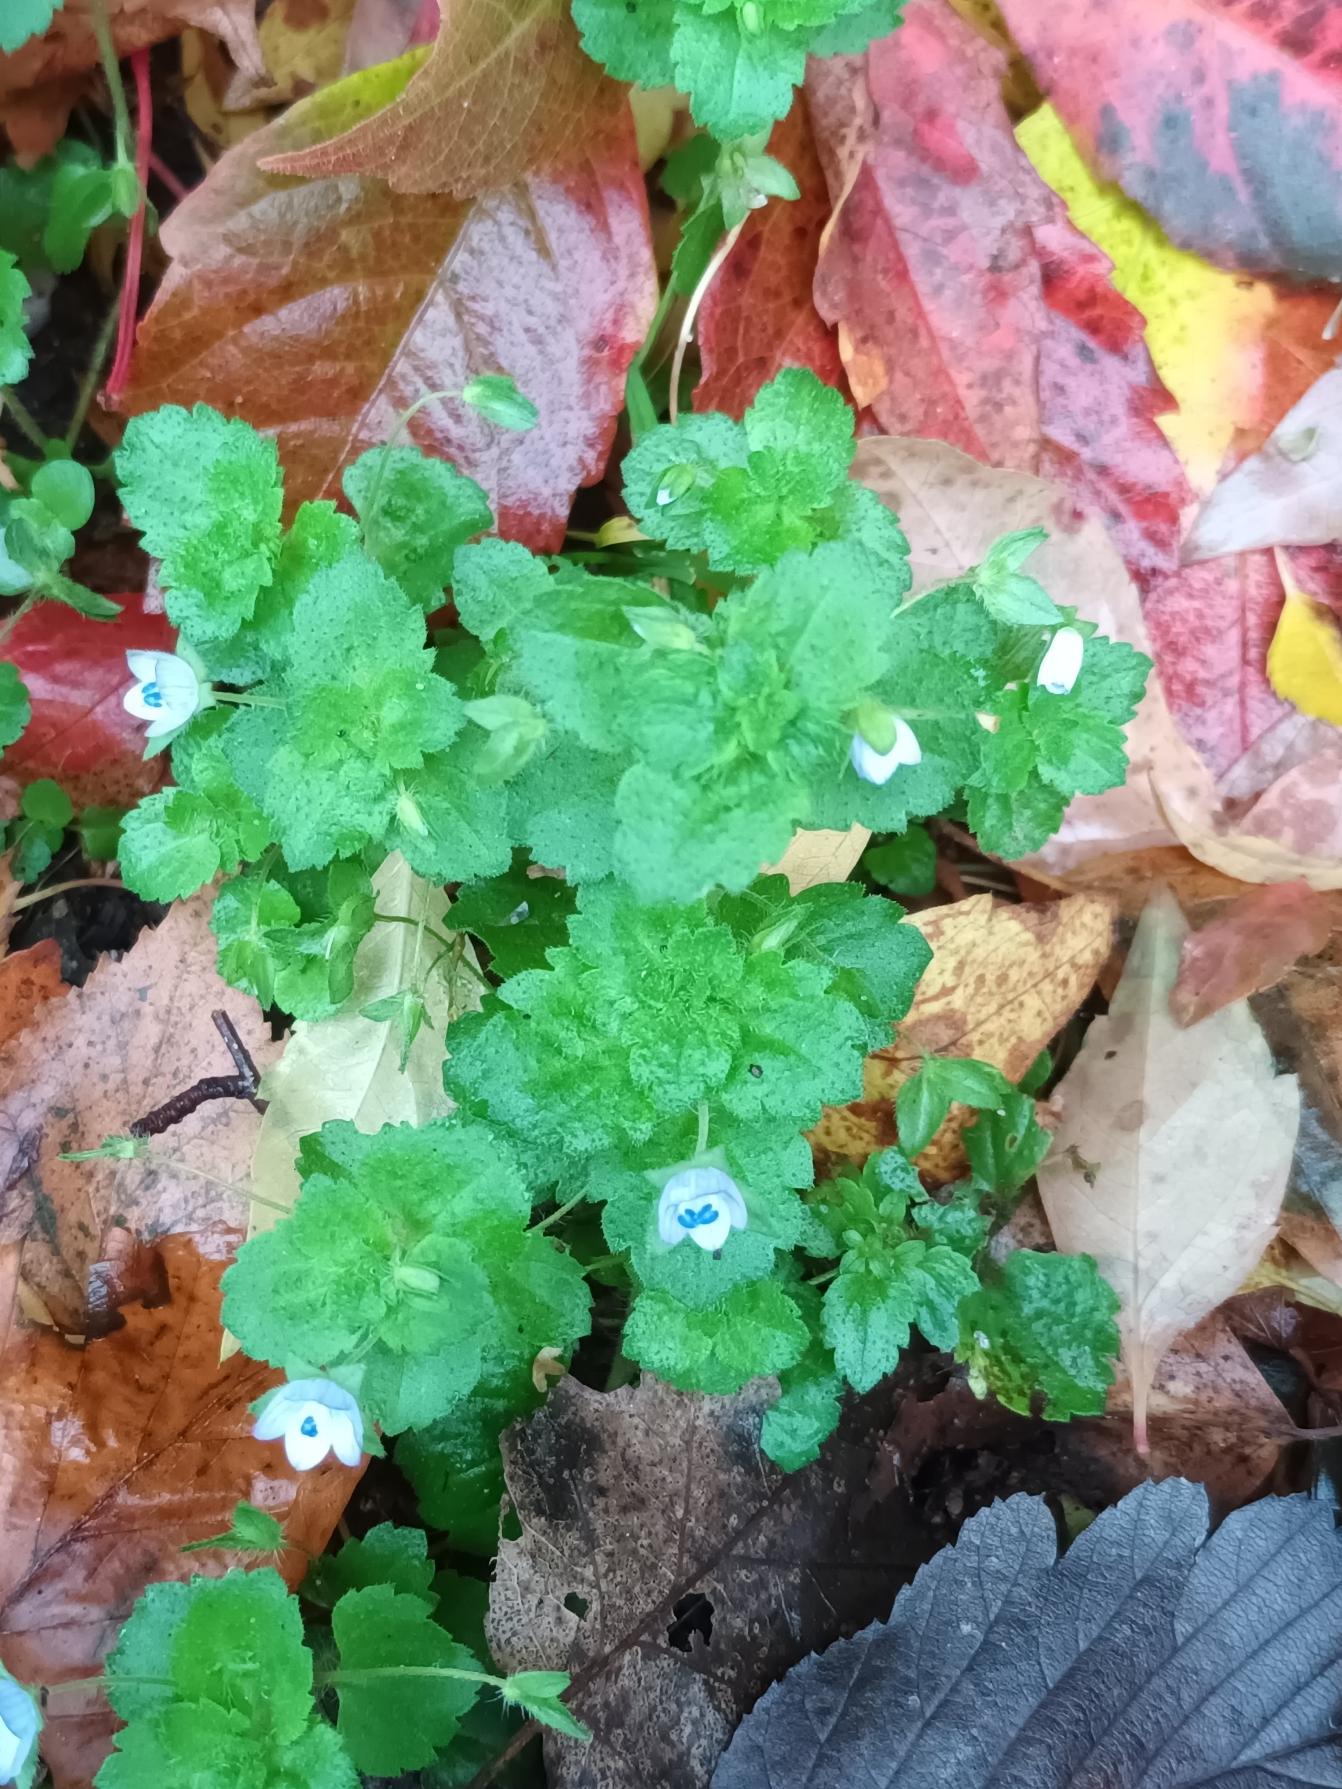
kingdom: Plantae
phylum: Tracheophyta
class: Magnoliopsida
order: Lamiales
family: Plantaginaceae
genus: Veronica
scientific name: Veronica persica
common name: Storkronet ærenpris
